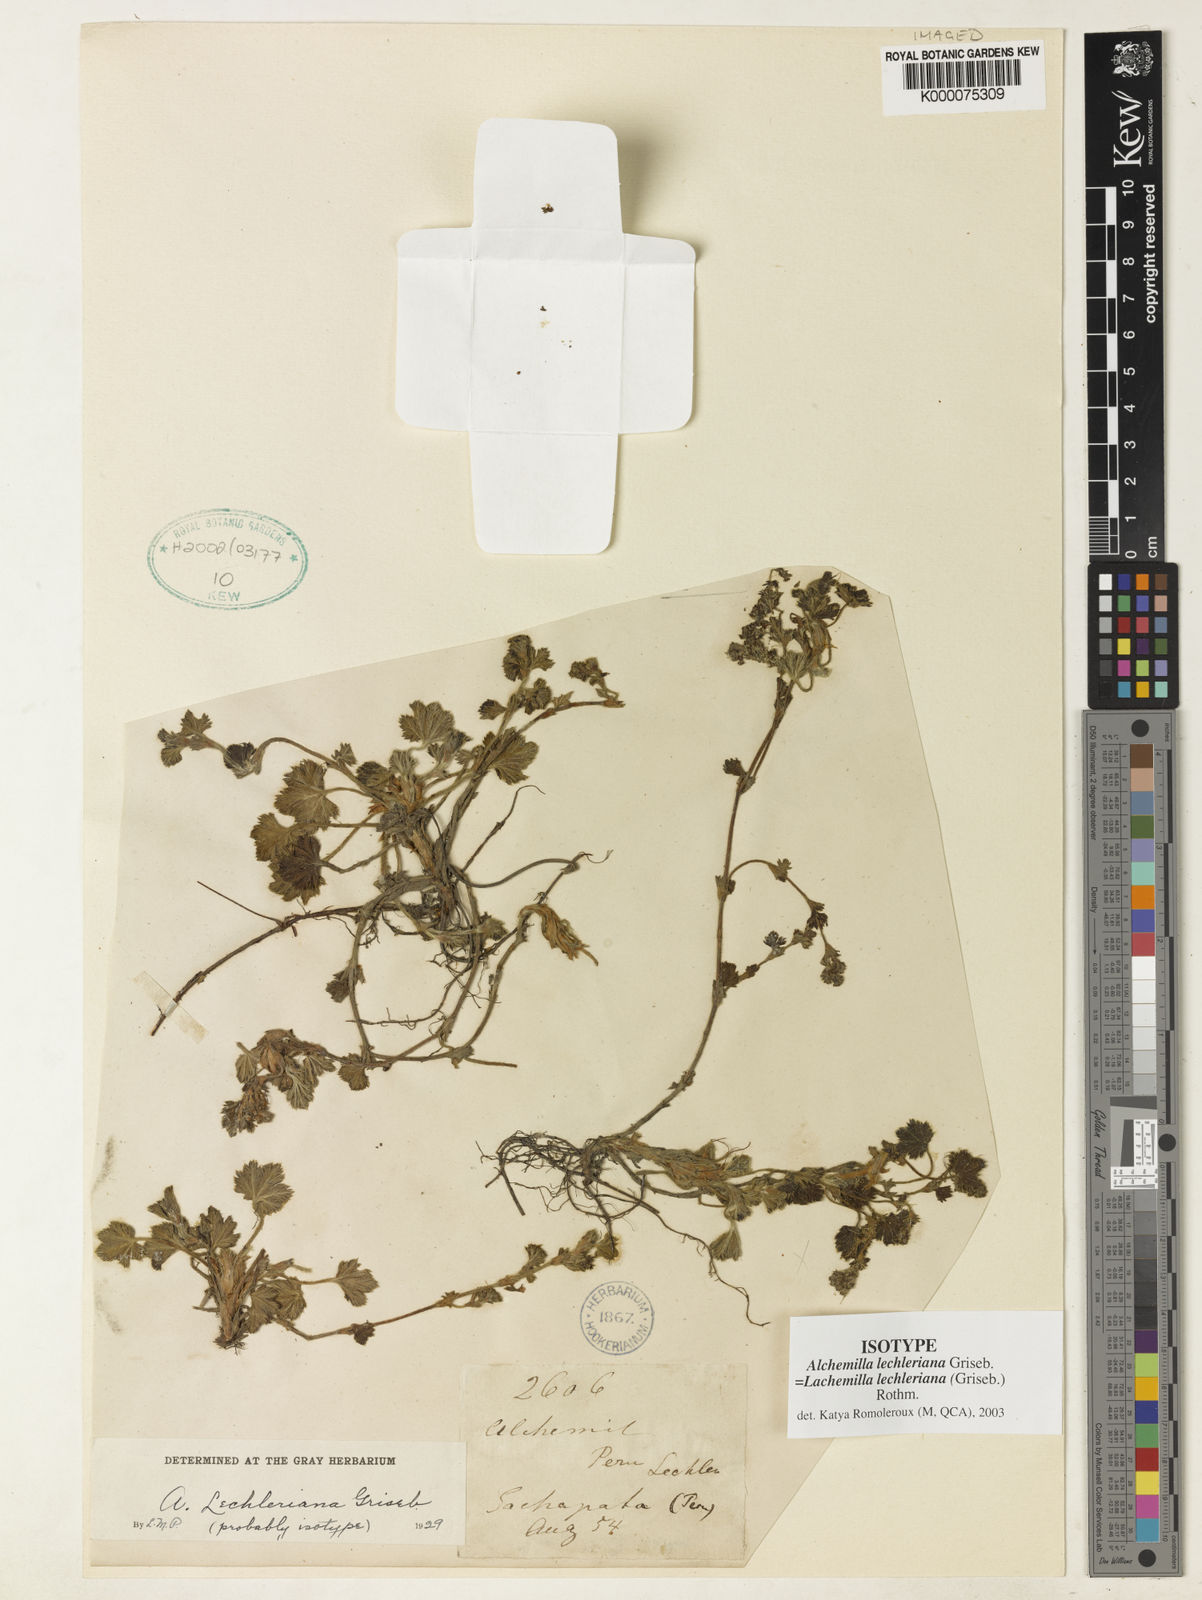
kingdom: Plantae
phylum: Tracheophyta
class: Magnoliopsida
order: Rosales
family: Rosaceae
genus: Lachemilla
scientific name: Lachemilla lechleriana
